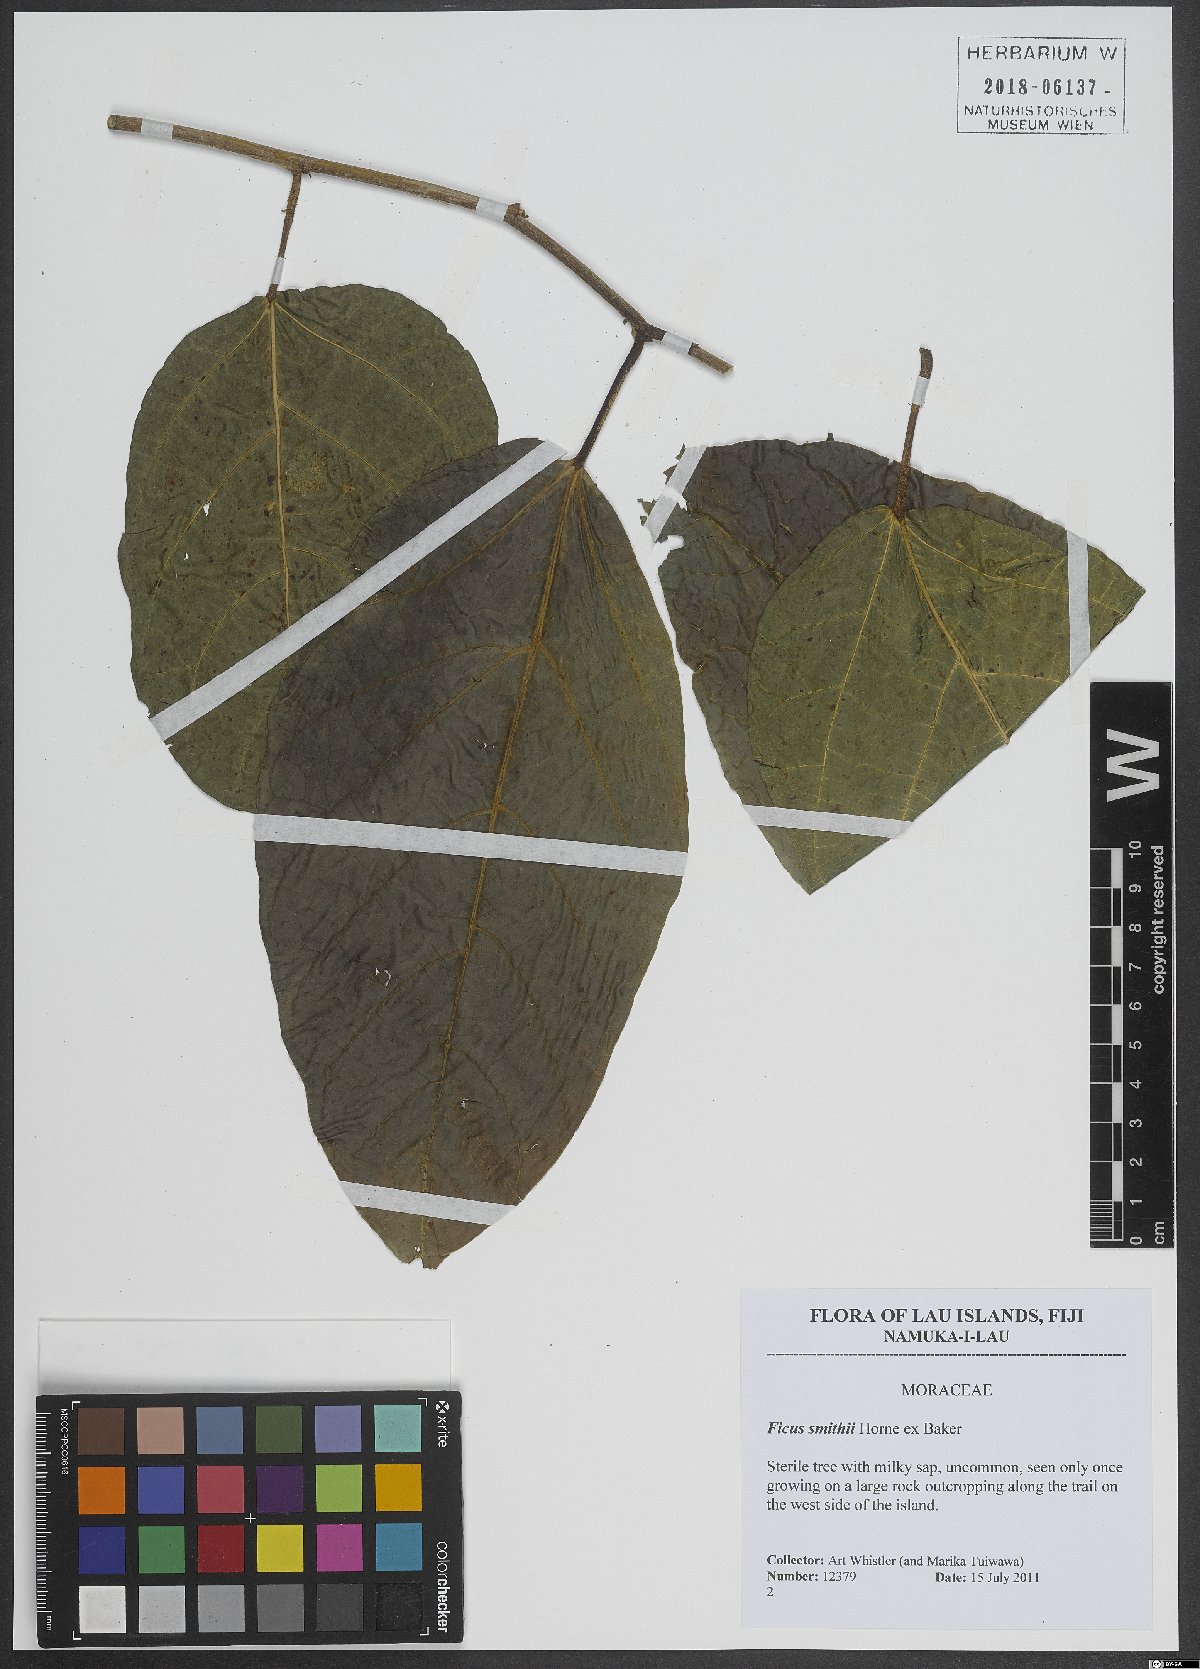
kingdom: Plantae
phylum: Tracheophyta
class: Magnoliopsida
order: Rosales
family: Moraceae
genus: Ficus
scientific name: Ficus smithii
